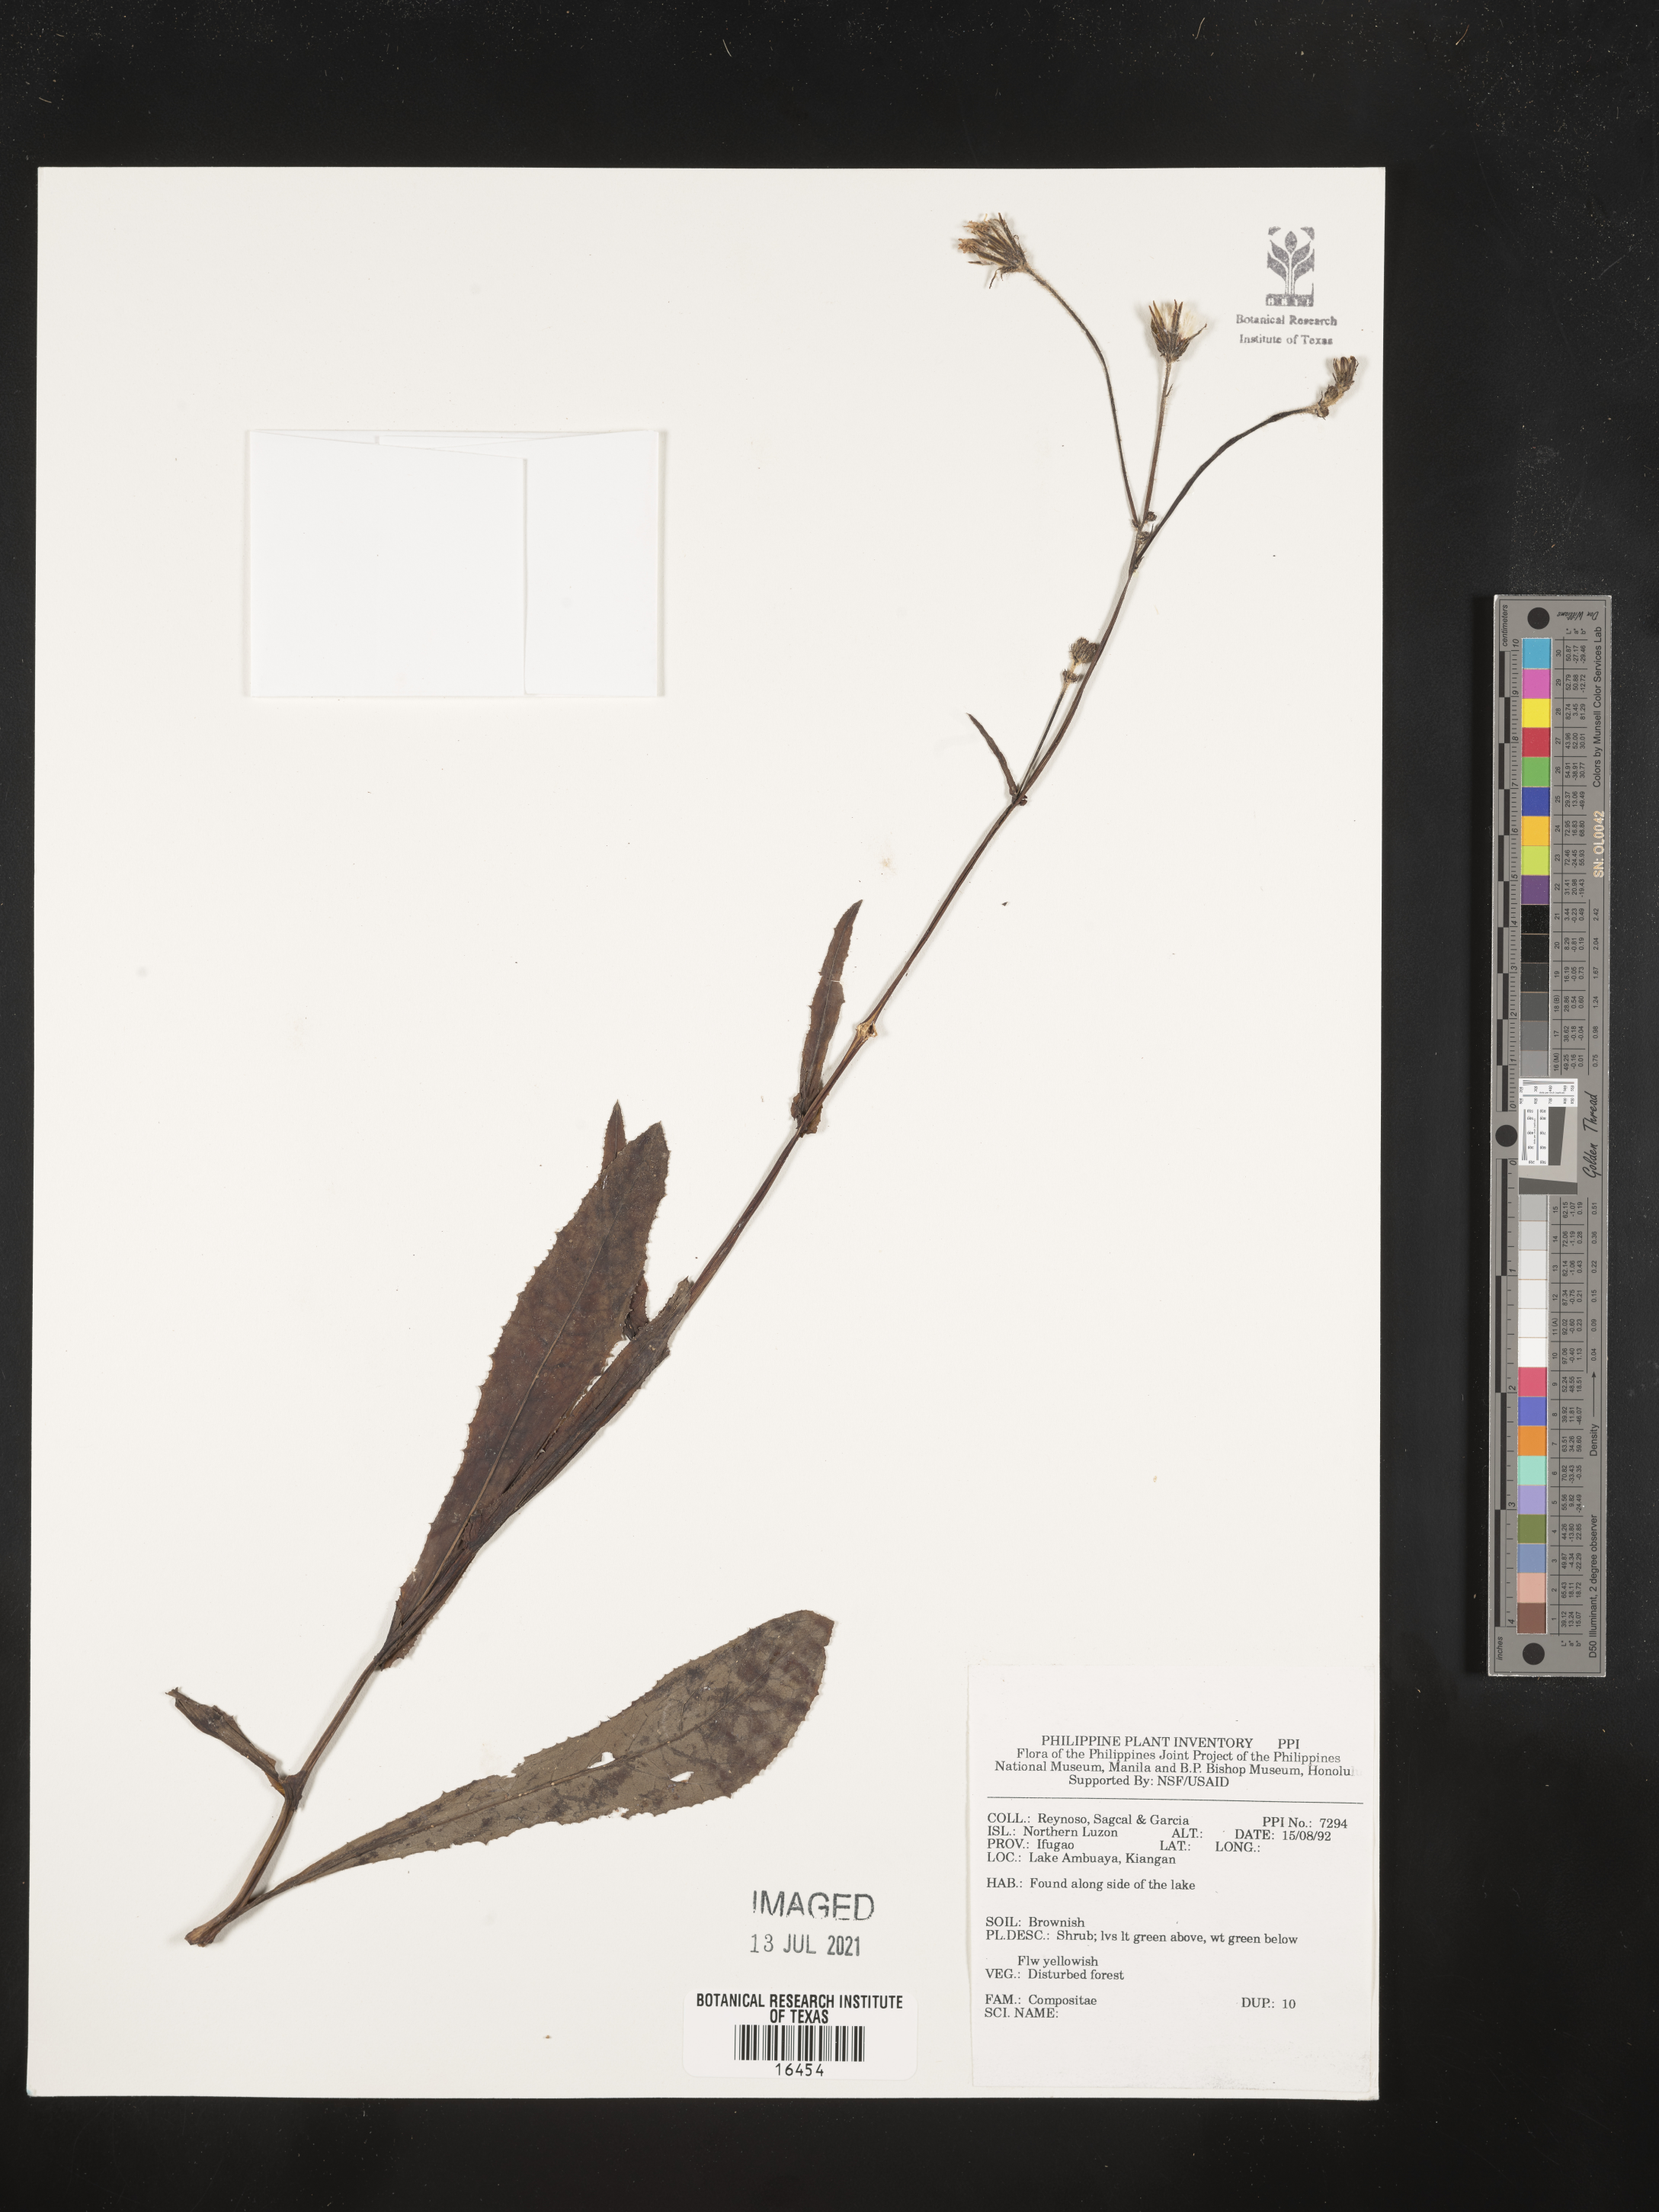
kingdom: Plantae
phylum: Tracheophyta
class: Magnoliopsida
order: Asterales
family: Asteraceae
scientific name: Asteraceae
